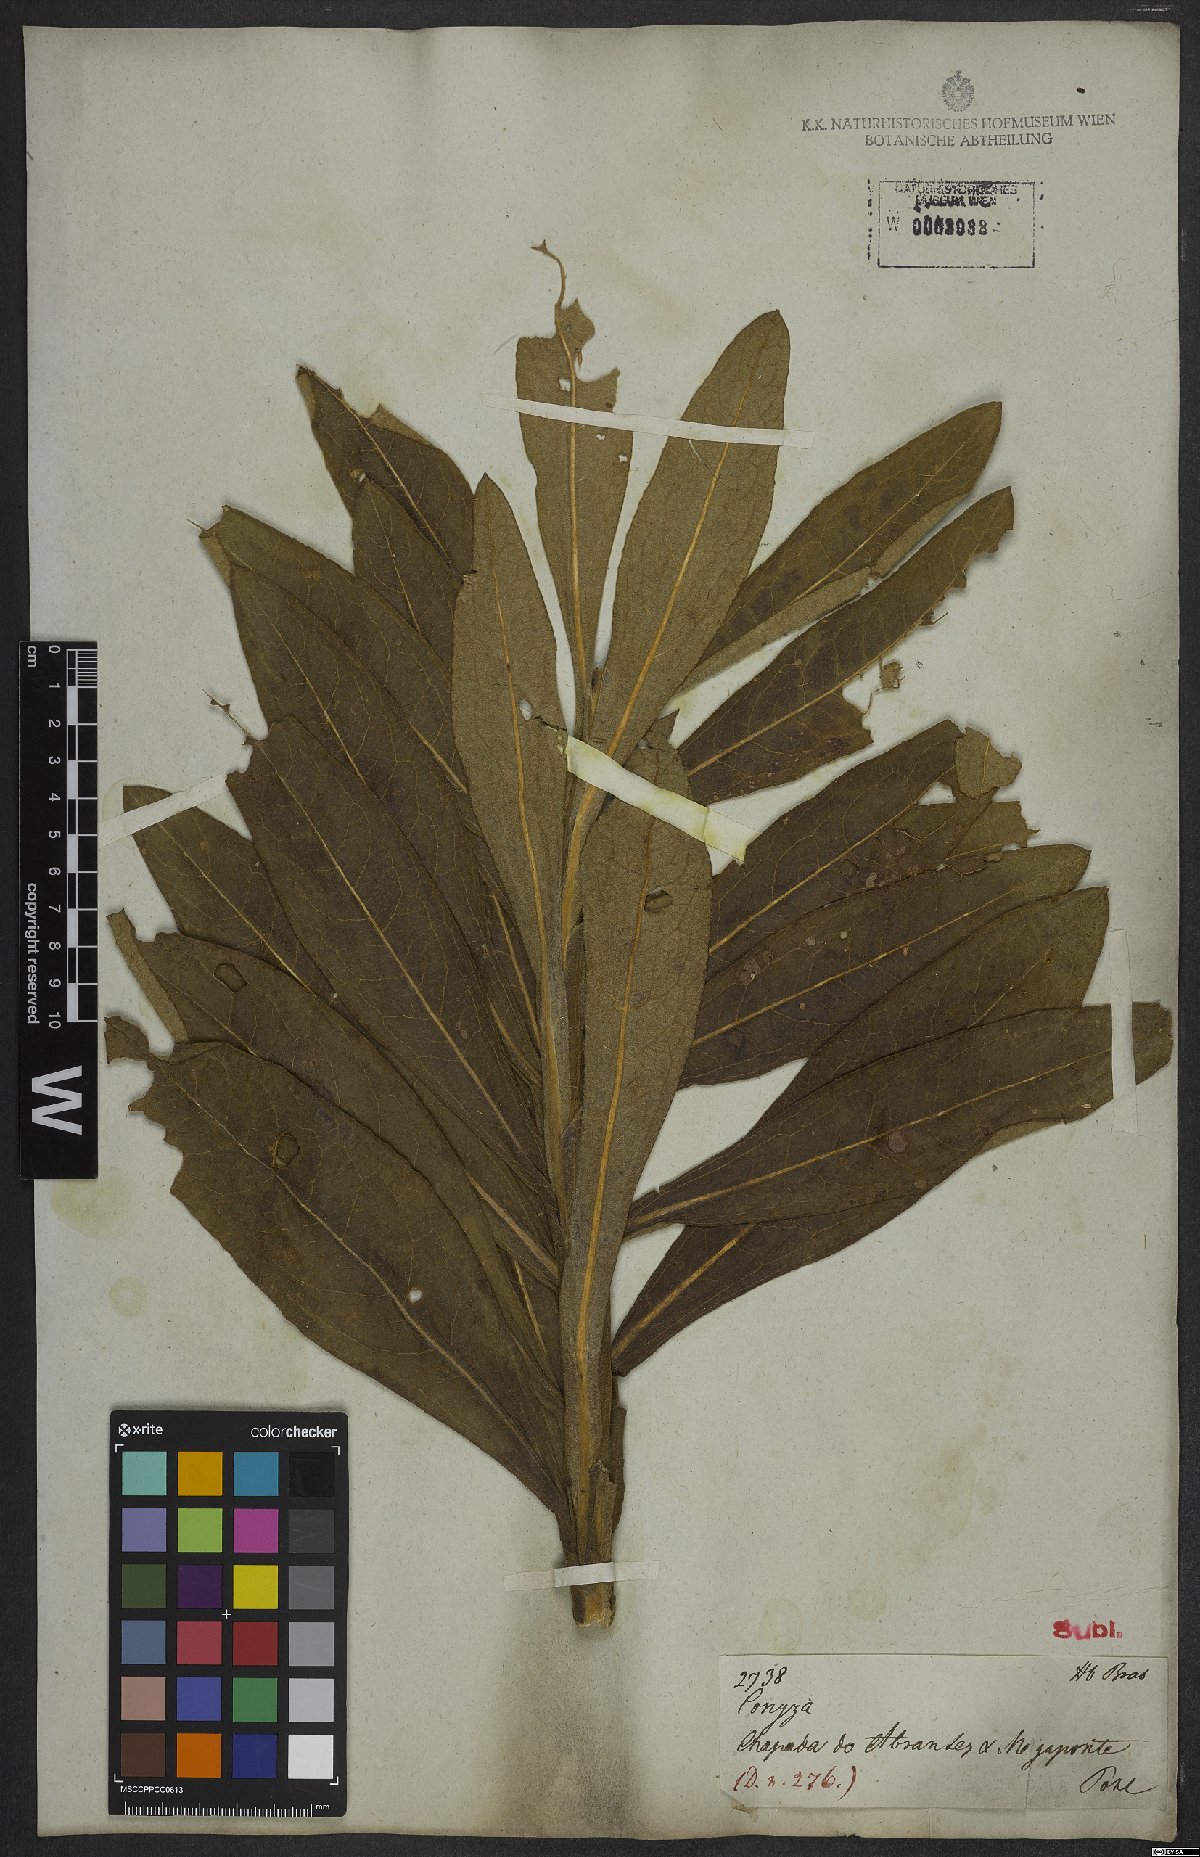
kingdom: Plantae
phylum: Tracheophyta
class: Magnoliopsida
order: Asterales
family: Asteraceae
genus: Trixis
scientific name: Trixis nobilis
